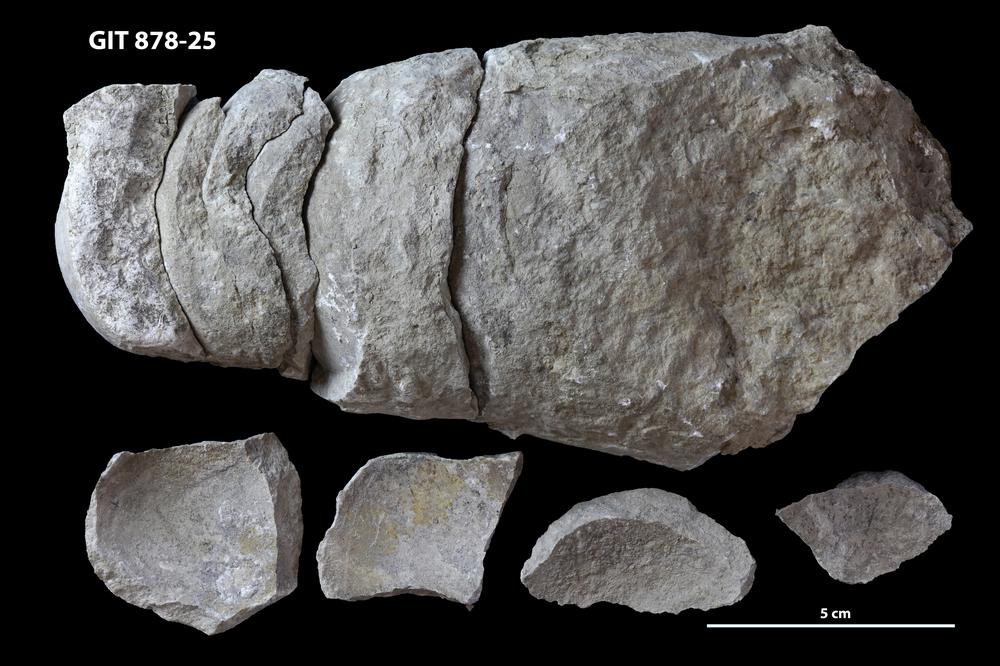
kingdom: Animalia
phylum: Mollusca
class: Cephalopoda
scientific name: Cephalopoda
